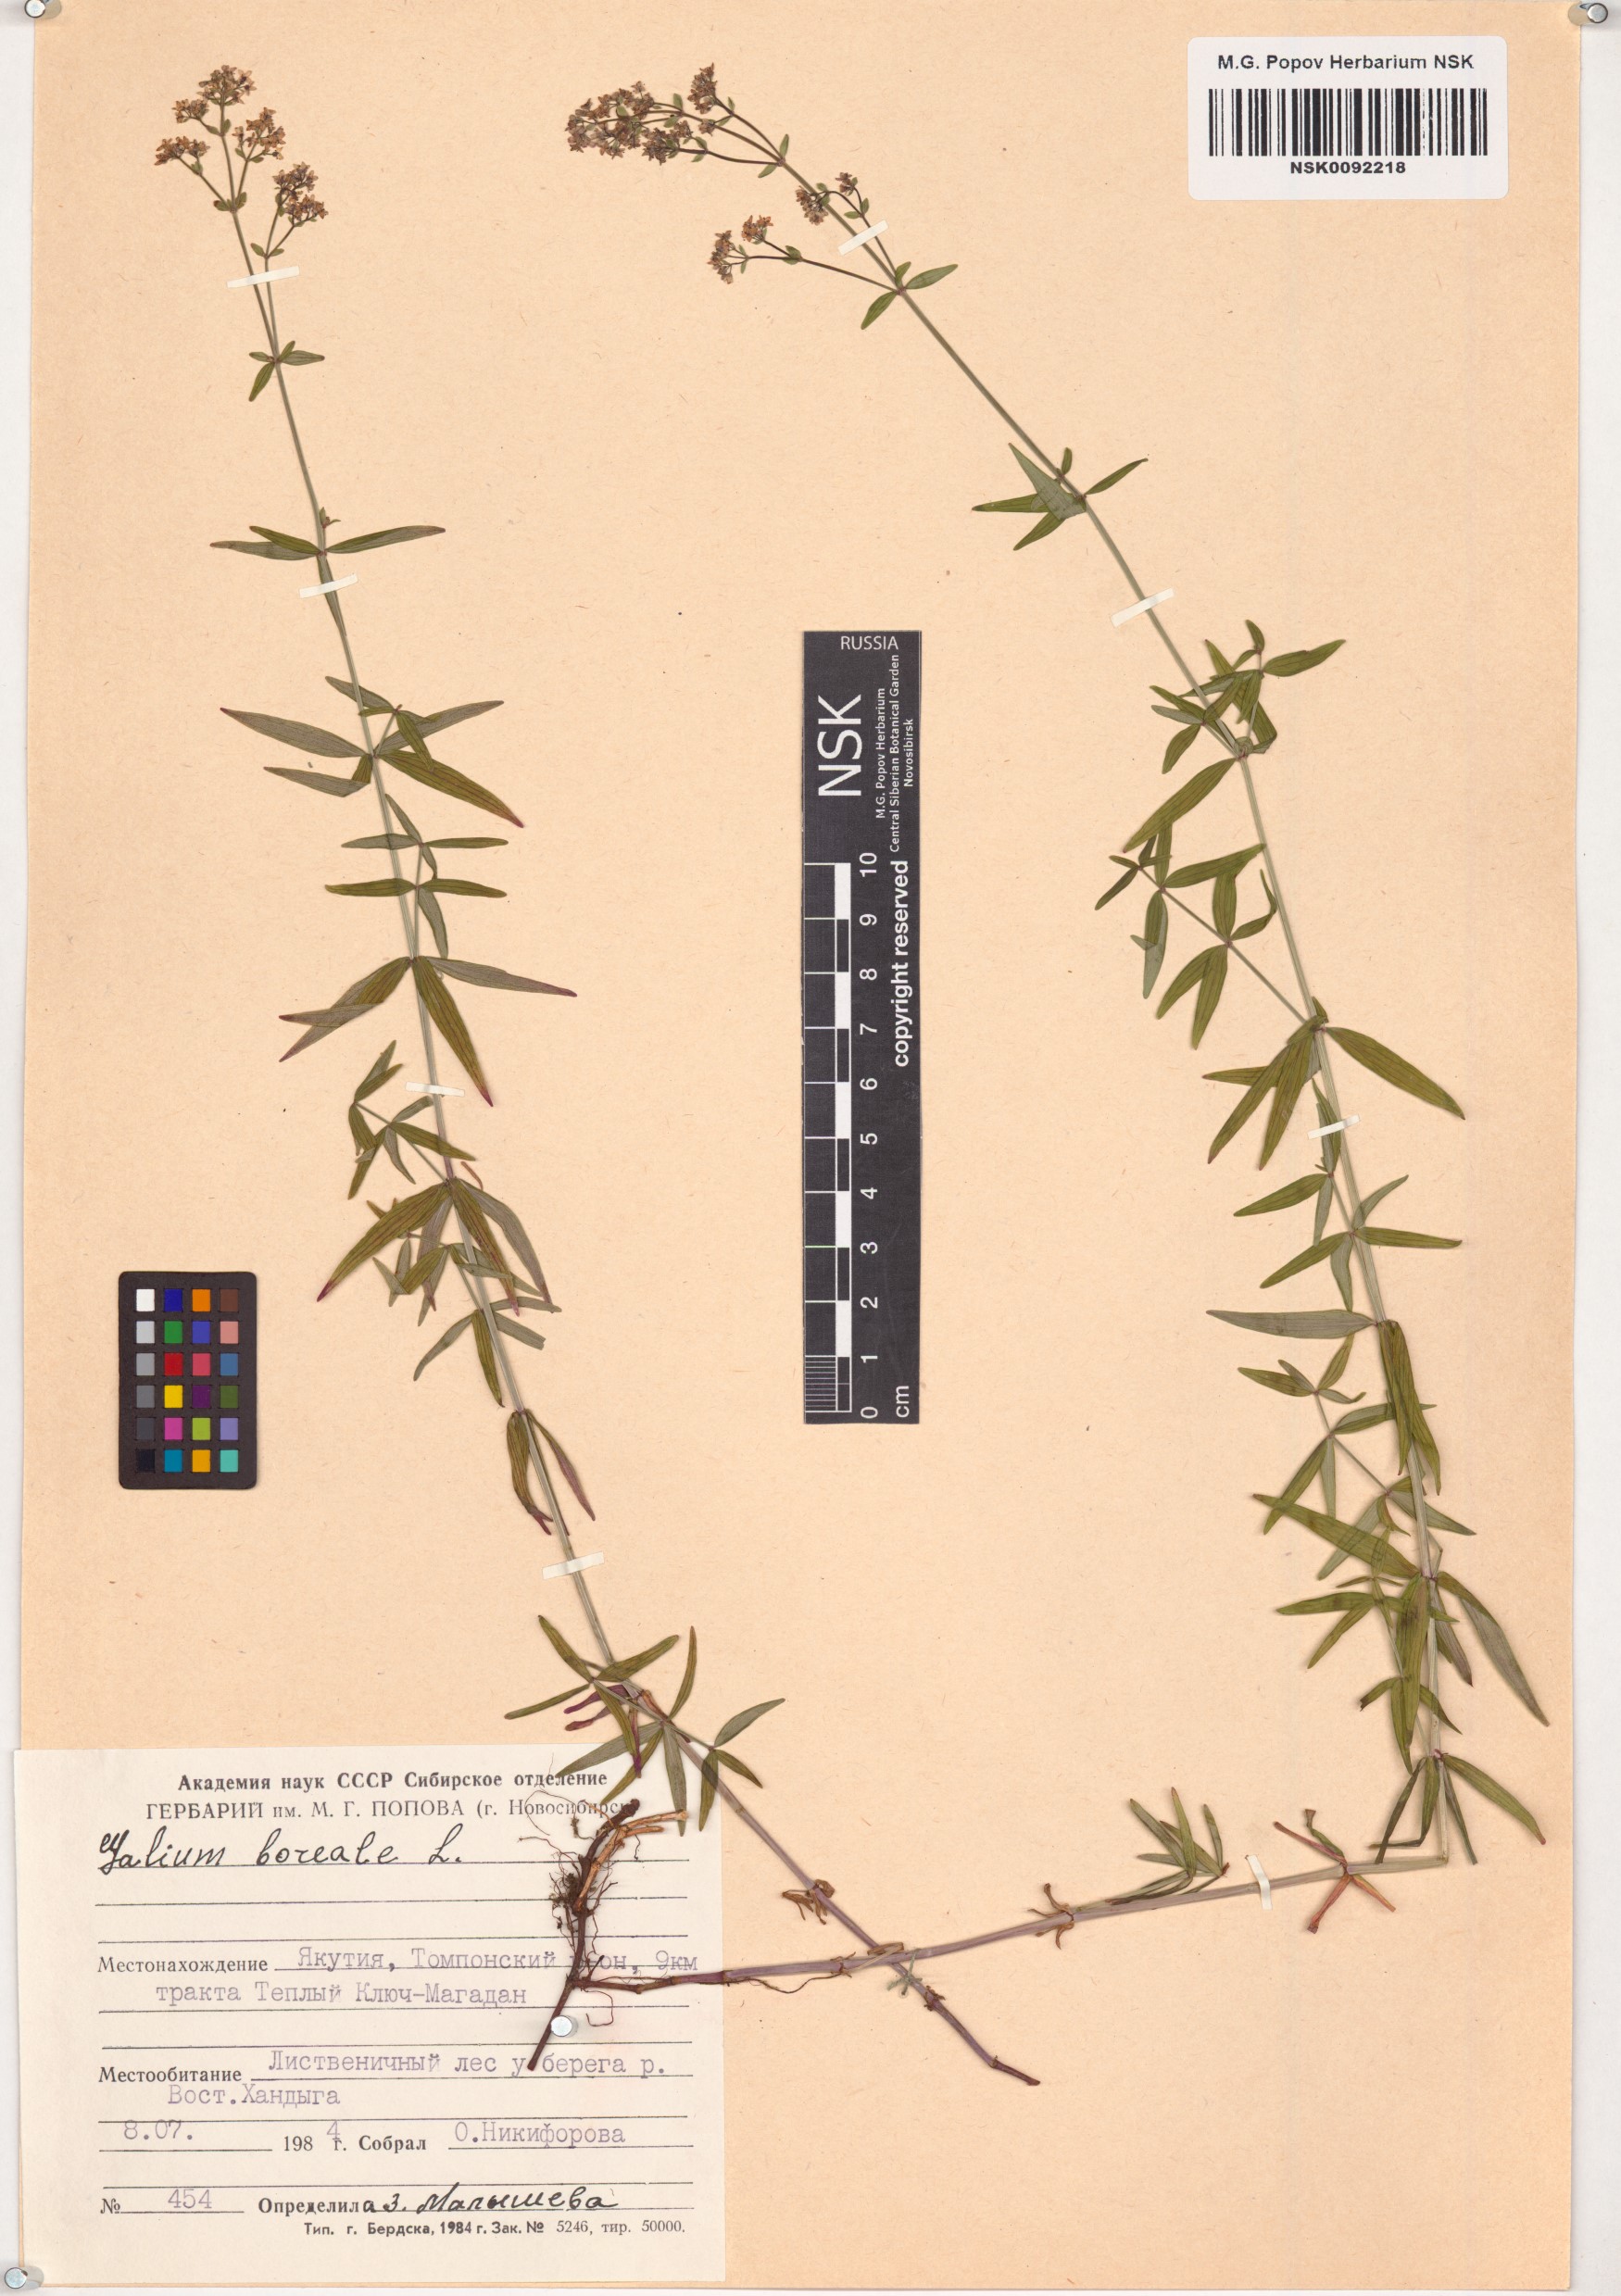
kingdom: Plantae
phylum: Tracheophyta
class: Magnoliopsida
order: Gentianales
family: Rubiaceae
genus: Galium
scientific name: Galium boreale
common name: Northern bedstraw
